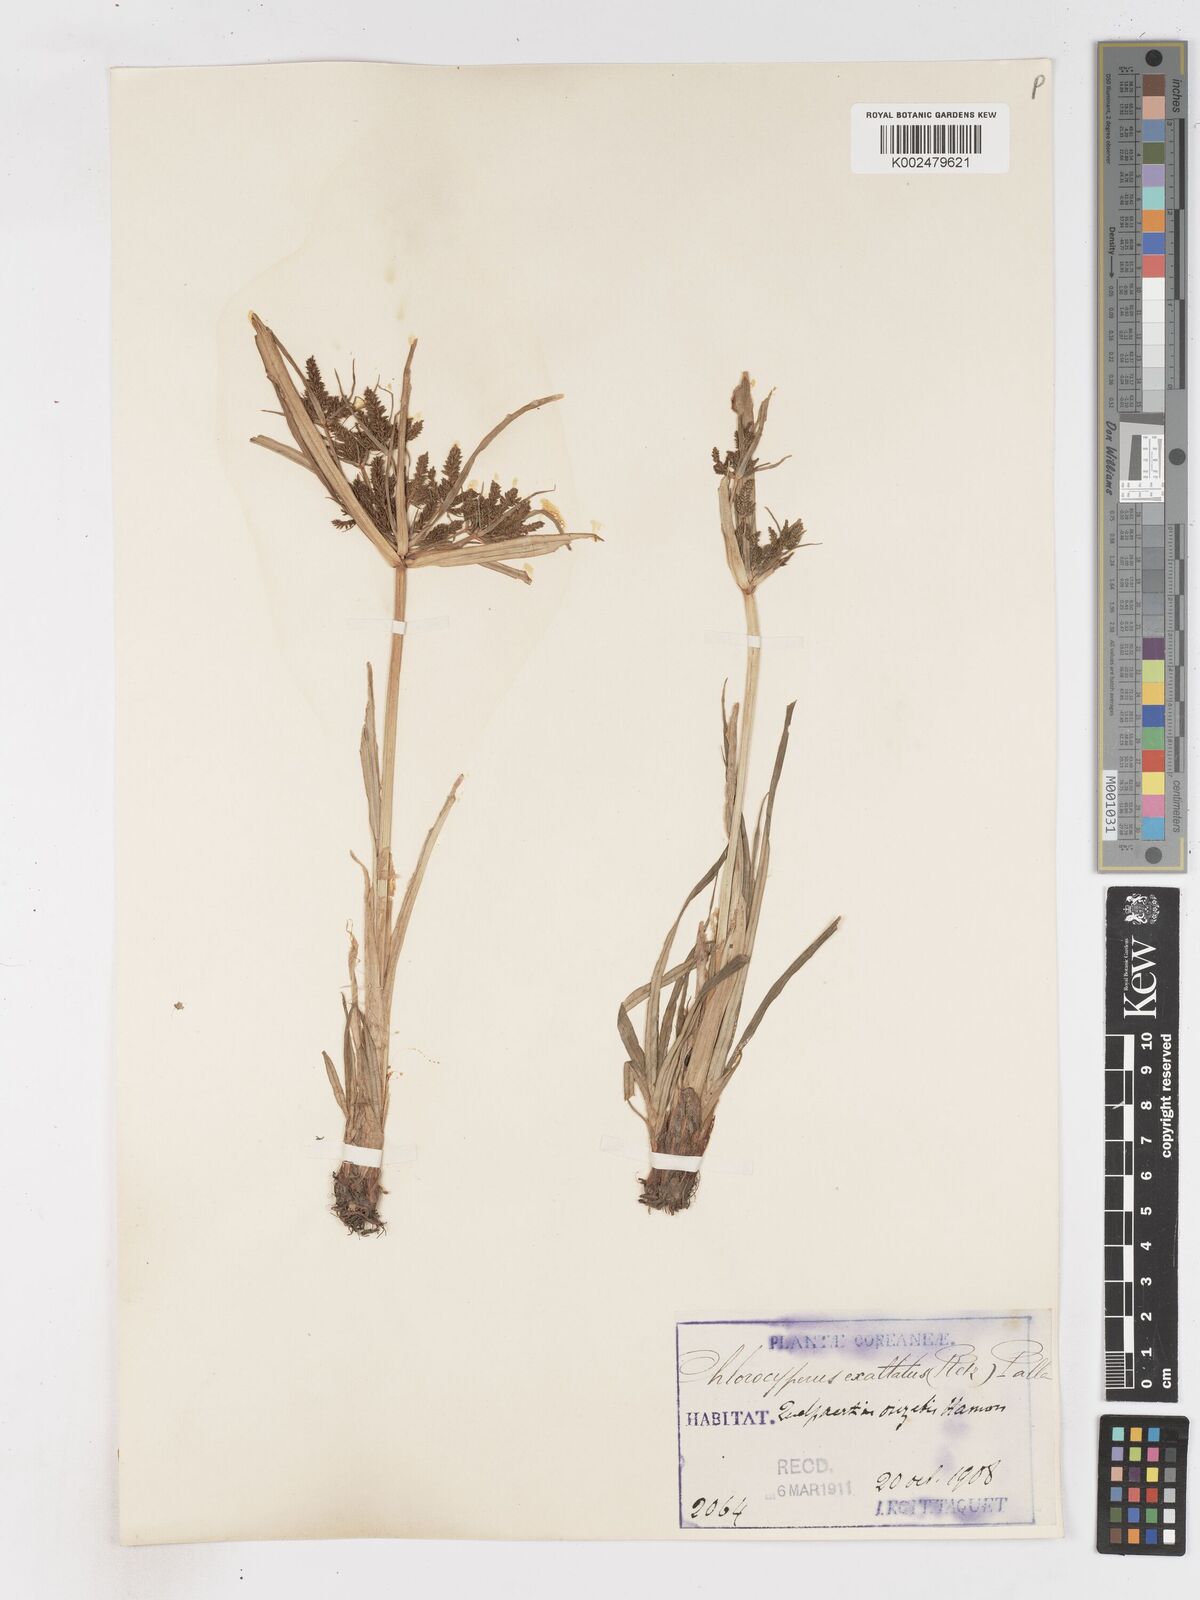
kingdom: Plantae
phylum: Tracheophyta
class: Liliopsida
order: Poales
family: Cyperaceae
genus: Cyperus
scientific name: Cyperus exaltatus
